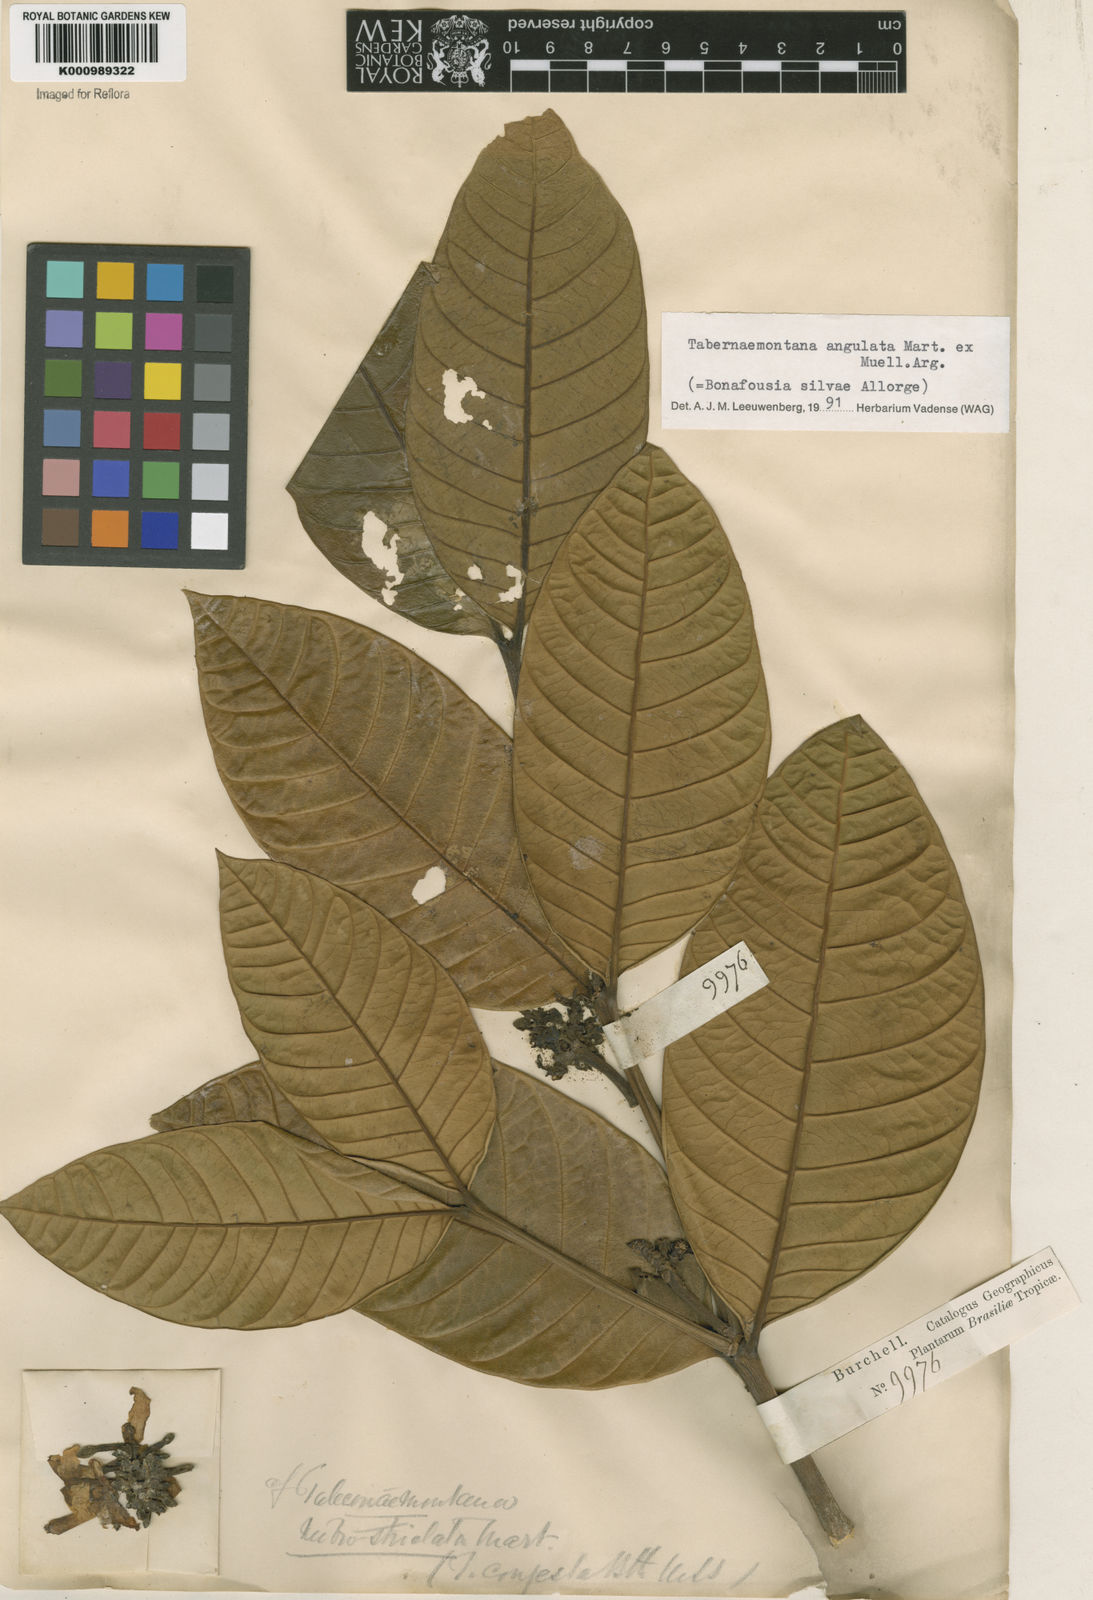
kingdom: Plantae
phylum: Tracheophyta
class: Magnoliopsida
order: Gentianales
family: Apocynaceae
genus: Tabernaemontana
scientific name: Tabernaemontana
